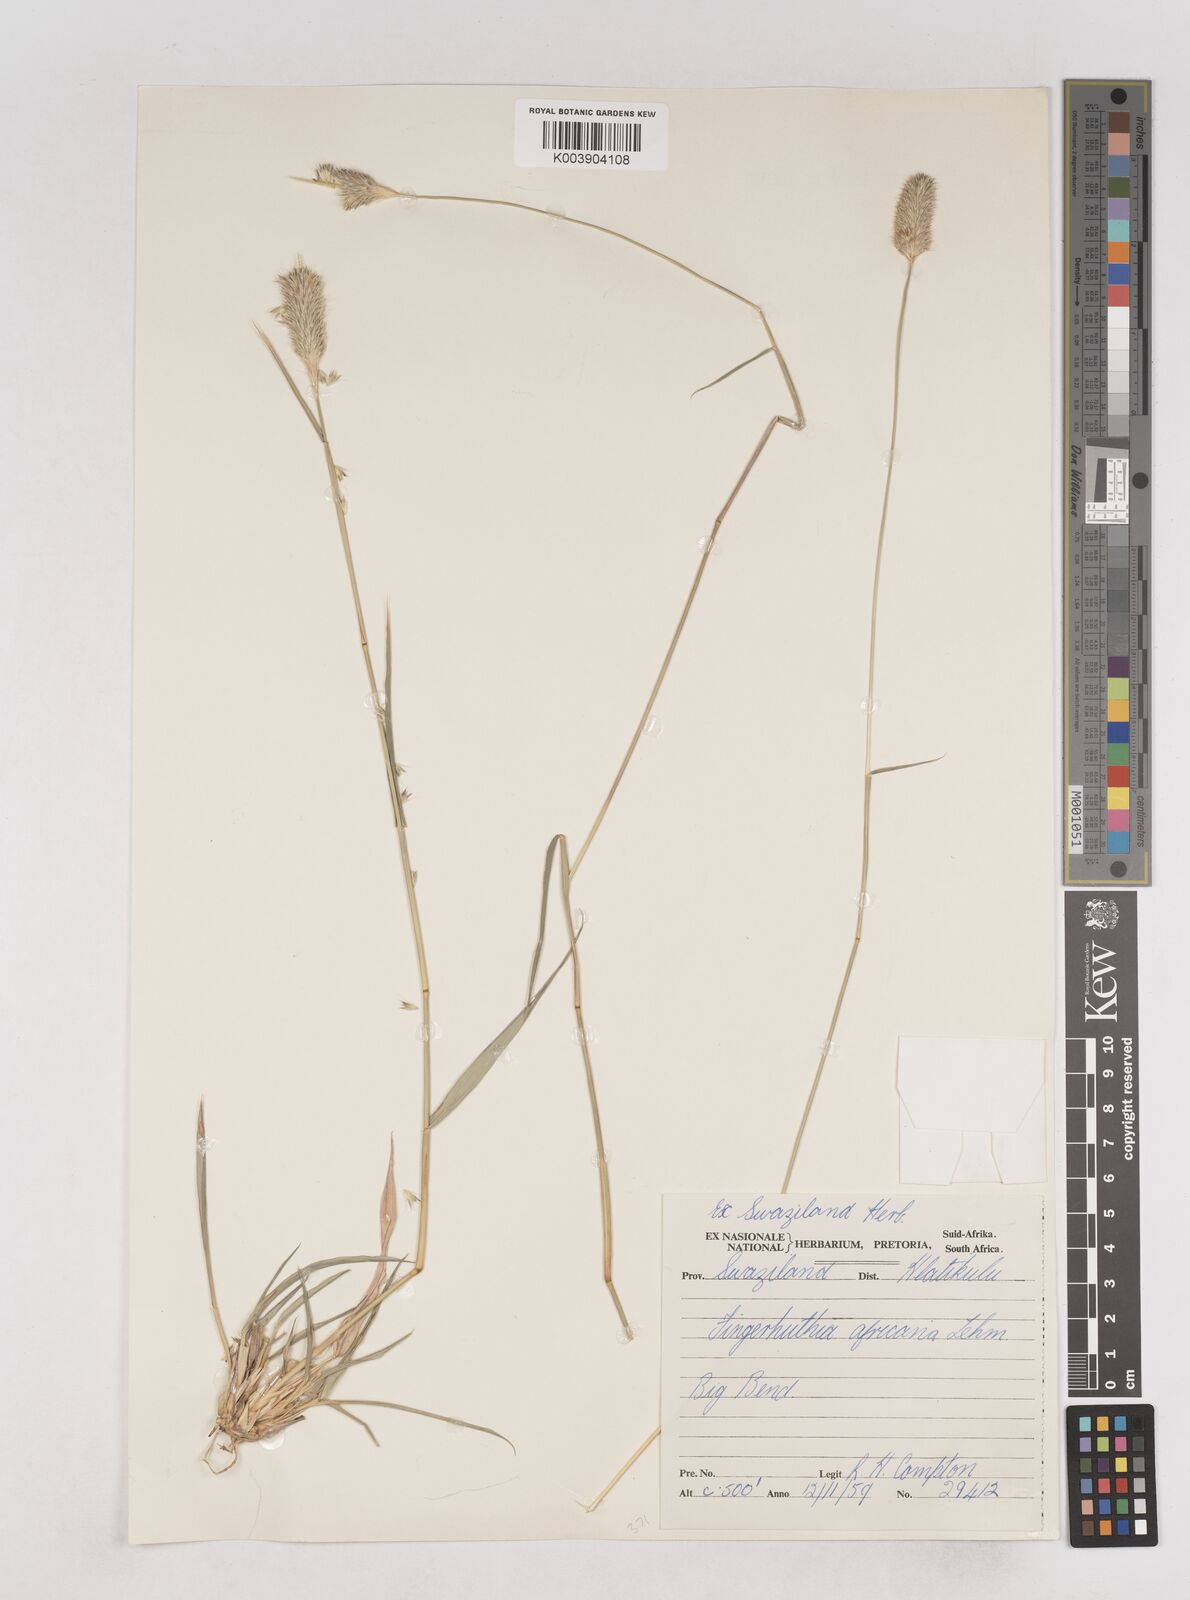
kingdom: Plantae
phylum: Tracheophyta
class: Liliopsida
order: Poales
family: Poaceae
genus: Fingerhuthia
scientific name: Fingerhuthia africana
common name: Zulu fescue
